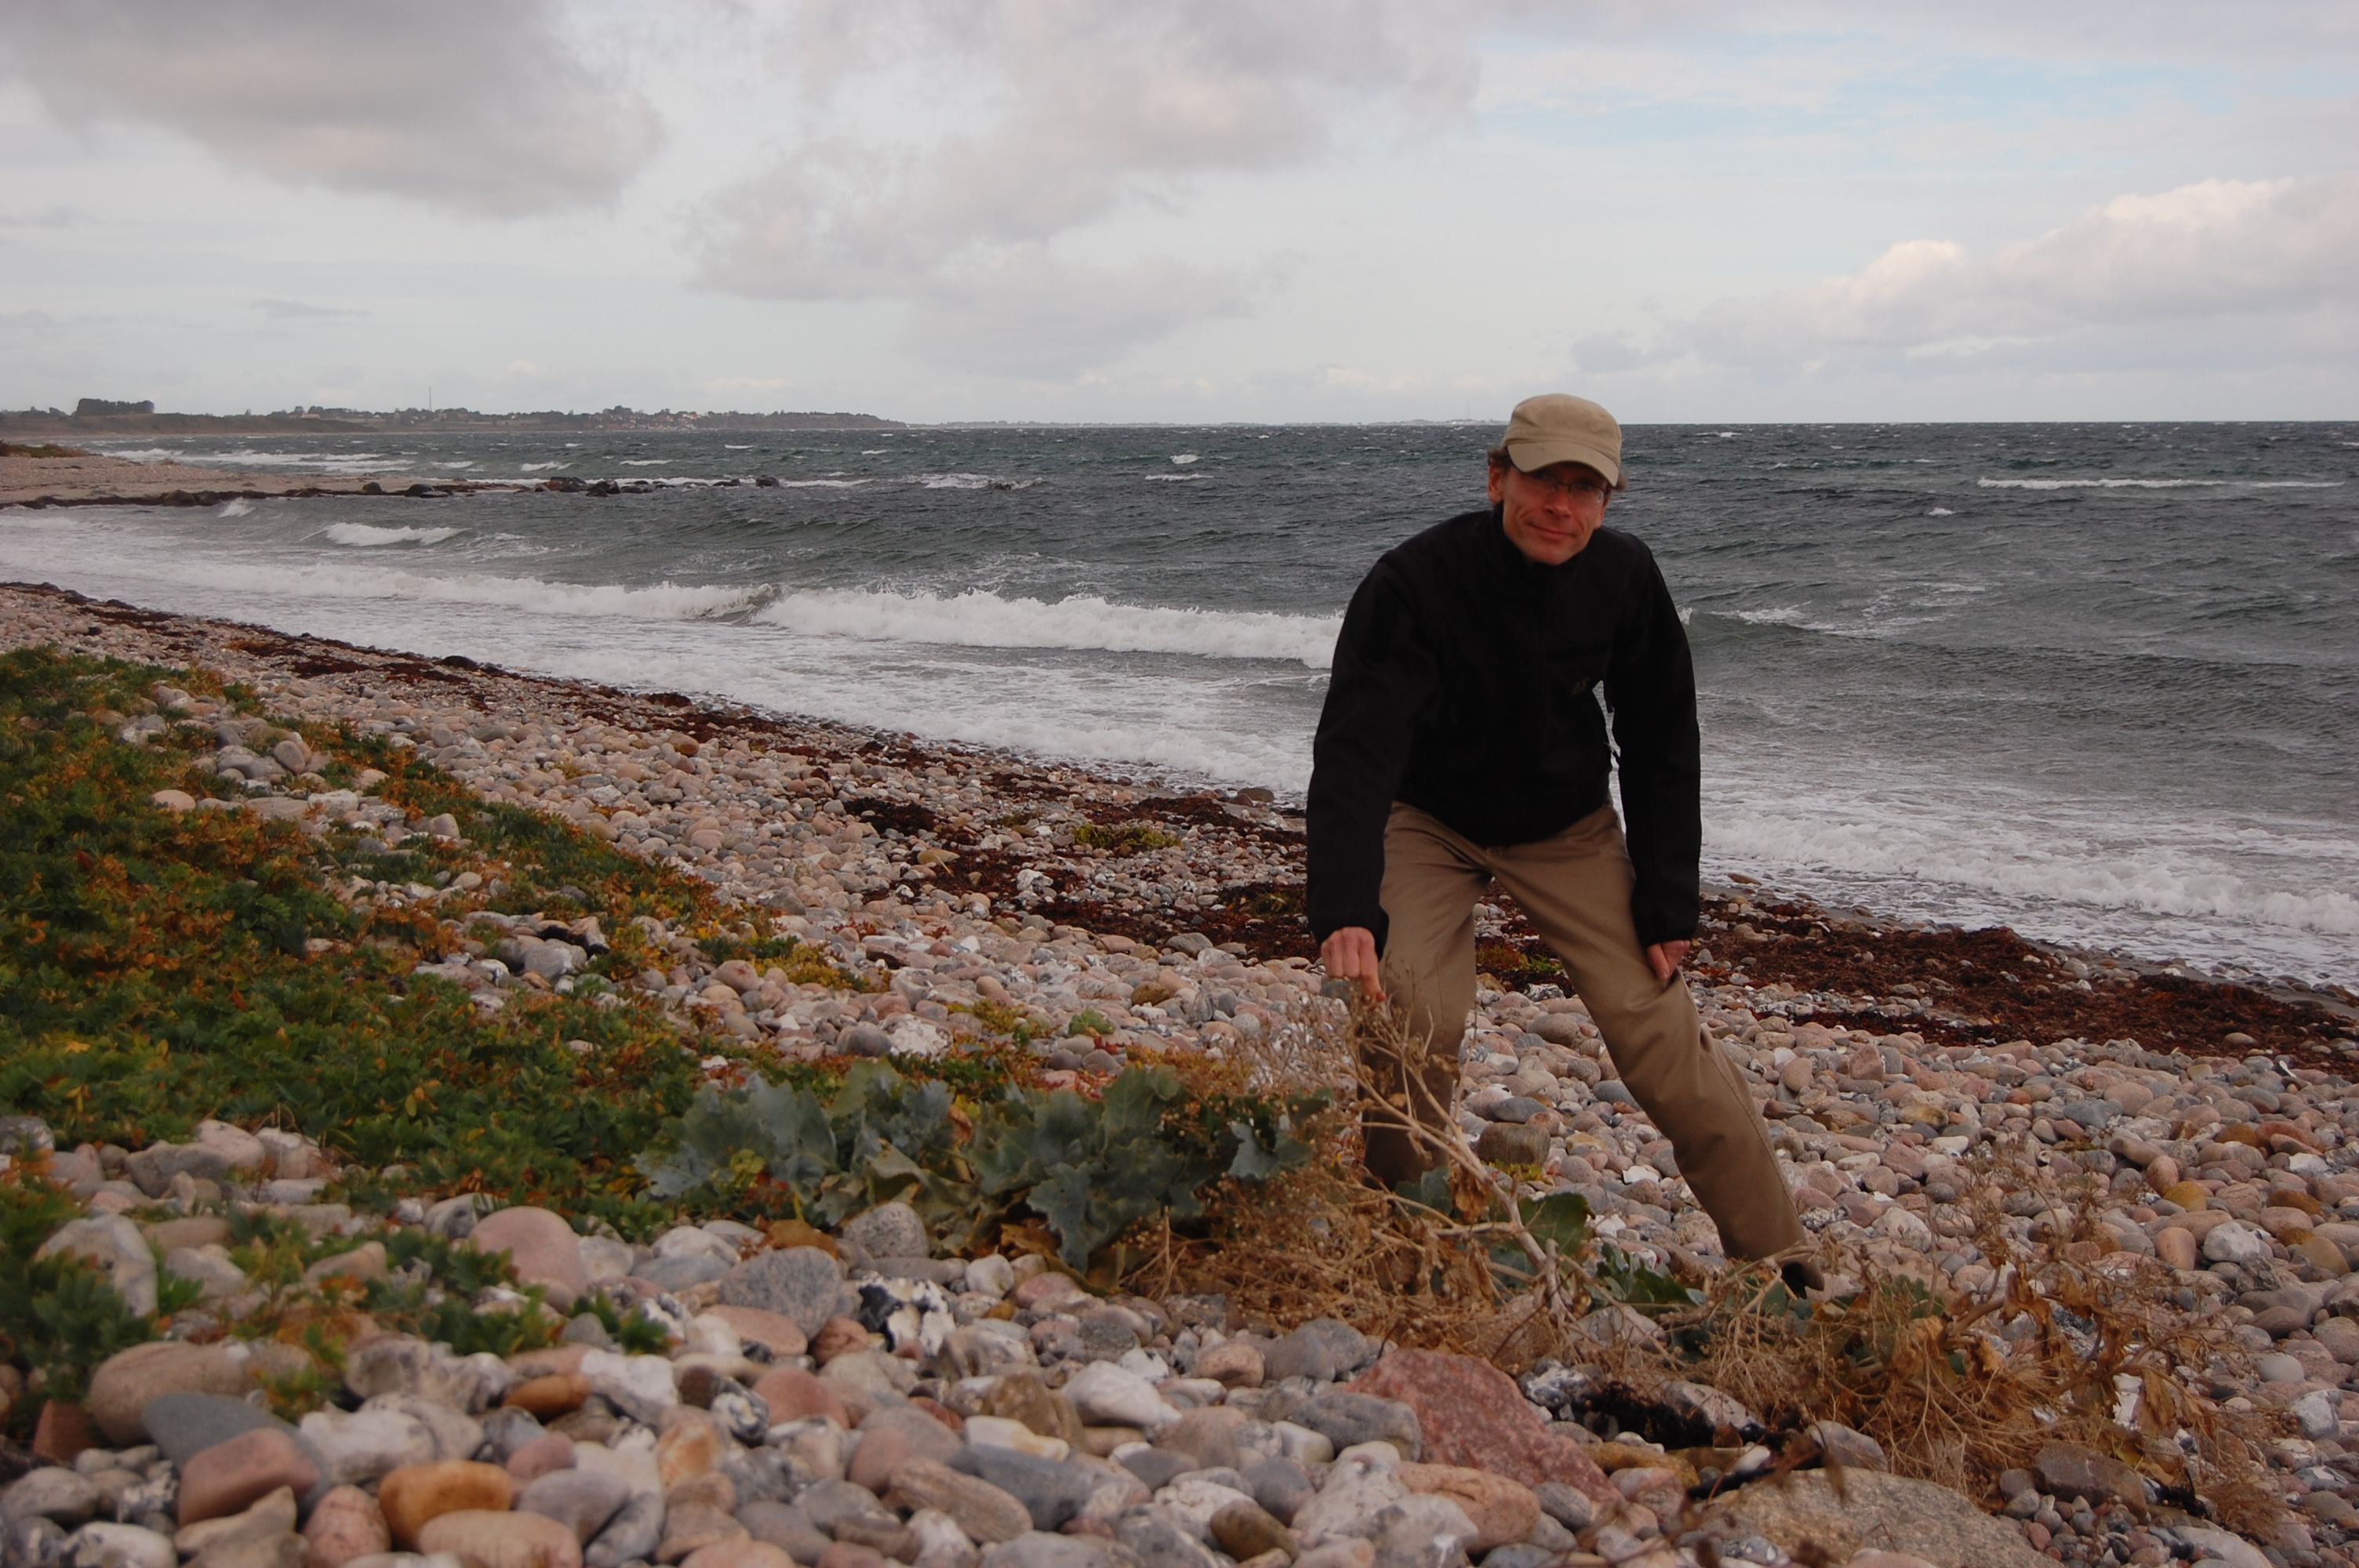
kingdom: Plantae
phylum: Tracheophyta
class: Magnoliopsida
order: Brassicales
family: Brassicaceae
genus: Crambe
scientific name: Crambe maritima
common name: Sea-kale
